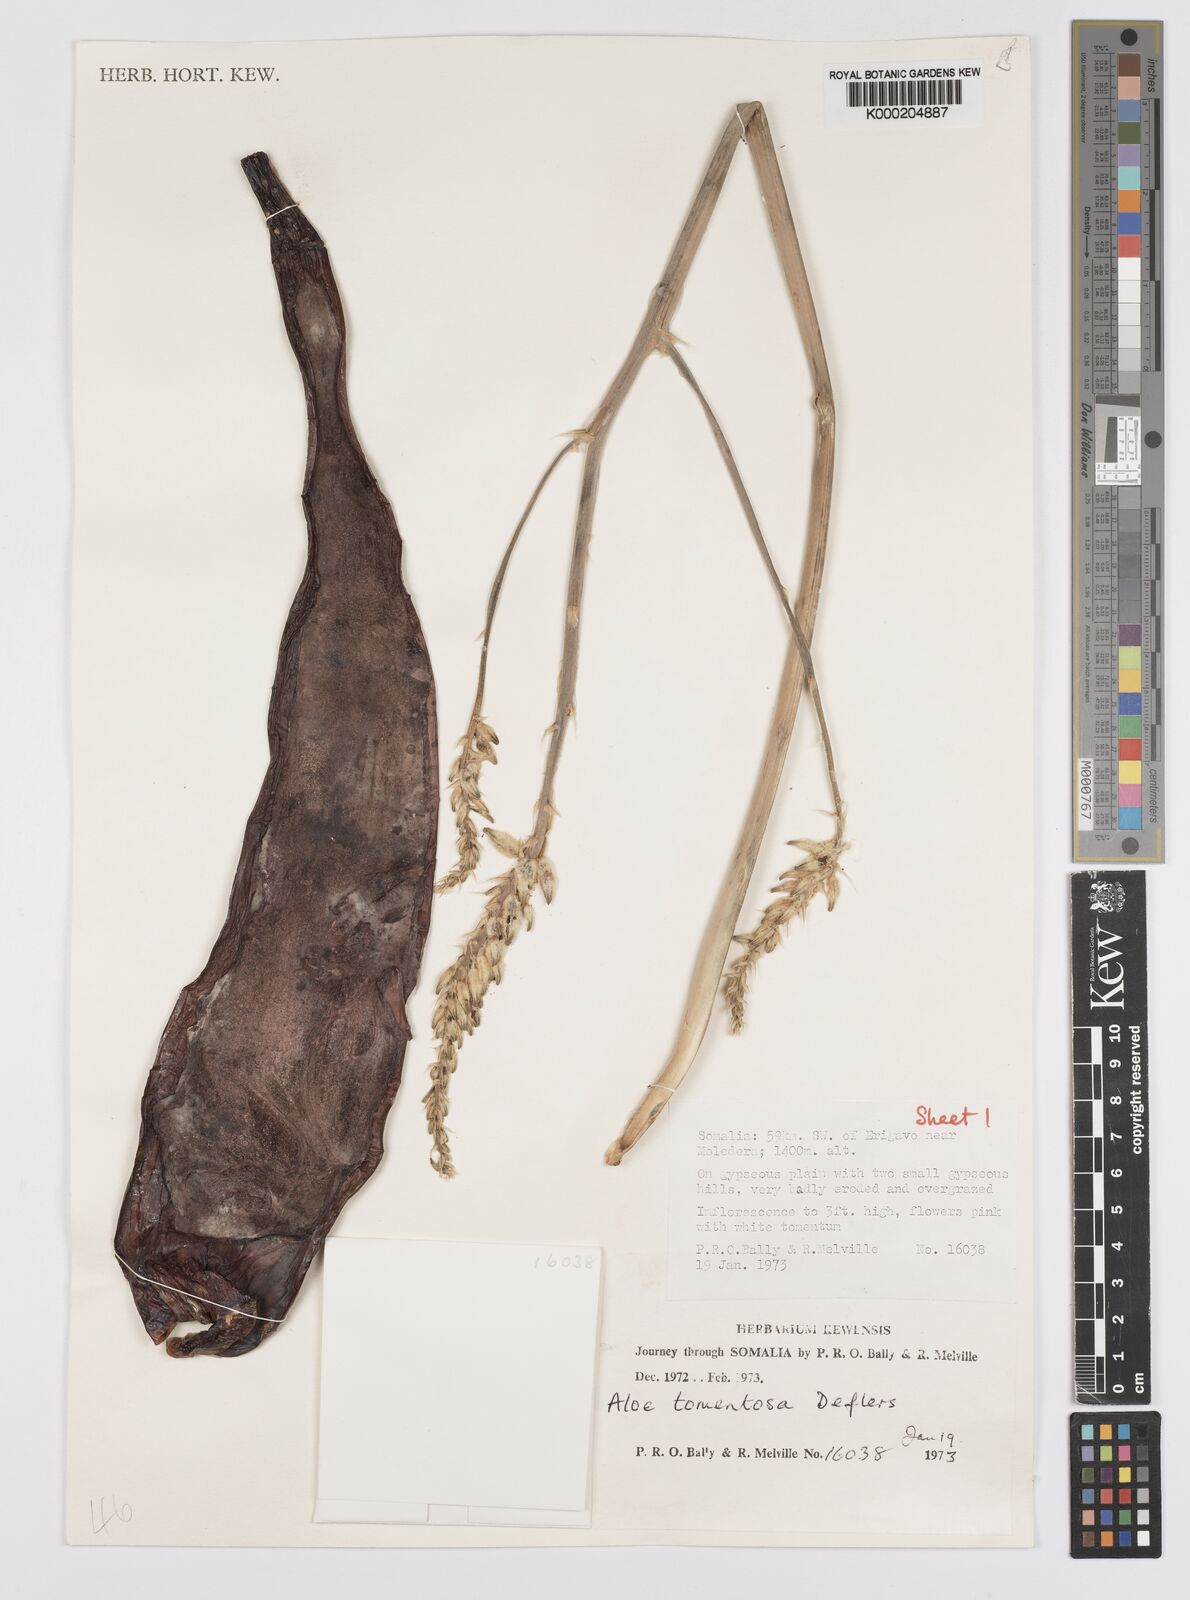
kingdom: Plantae
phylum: Tracheophyta
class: Liliopsida
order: Asparagales
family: Asphodelaceae
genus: Aloe
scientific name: Aloe molederana
